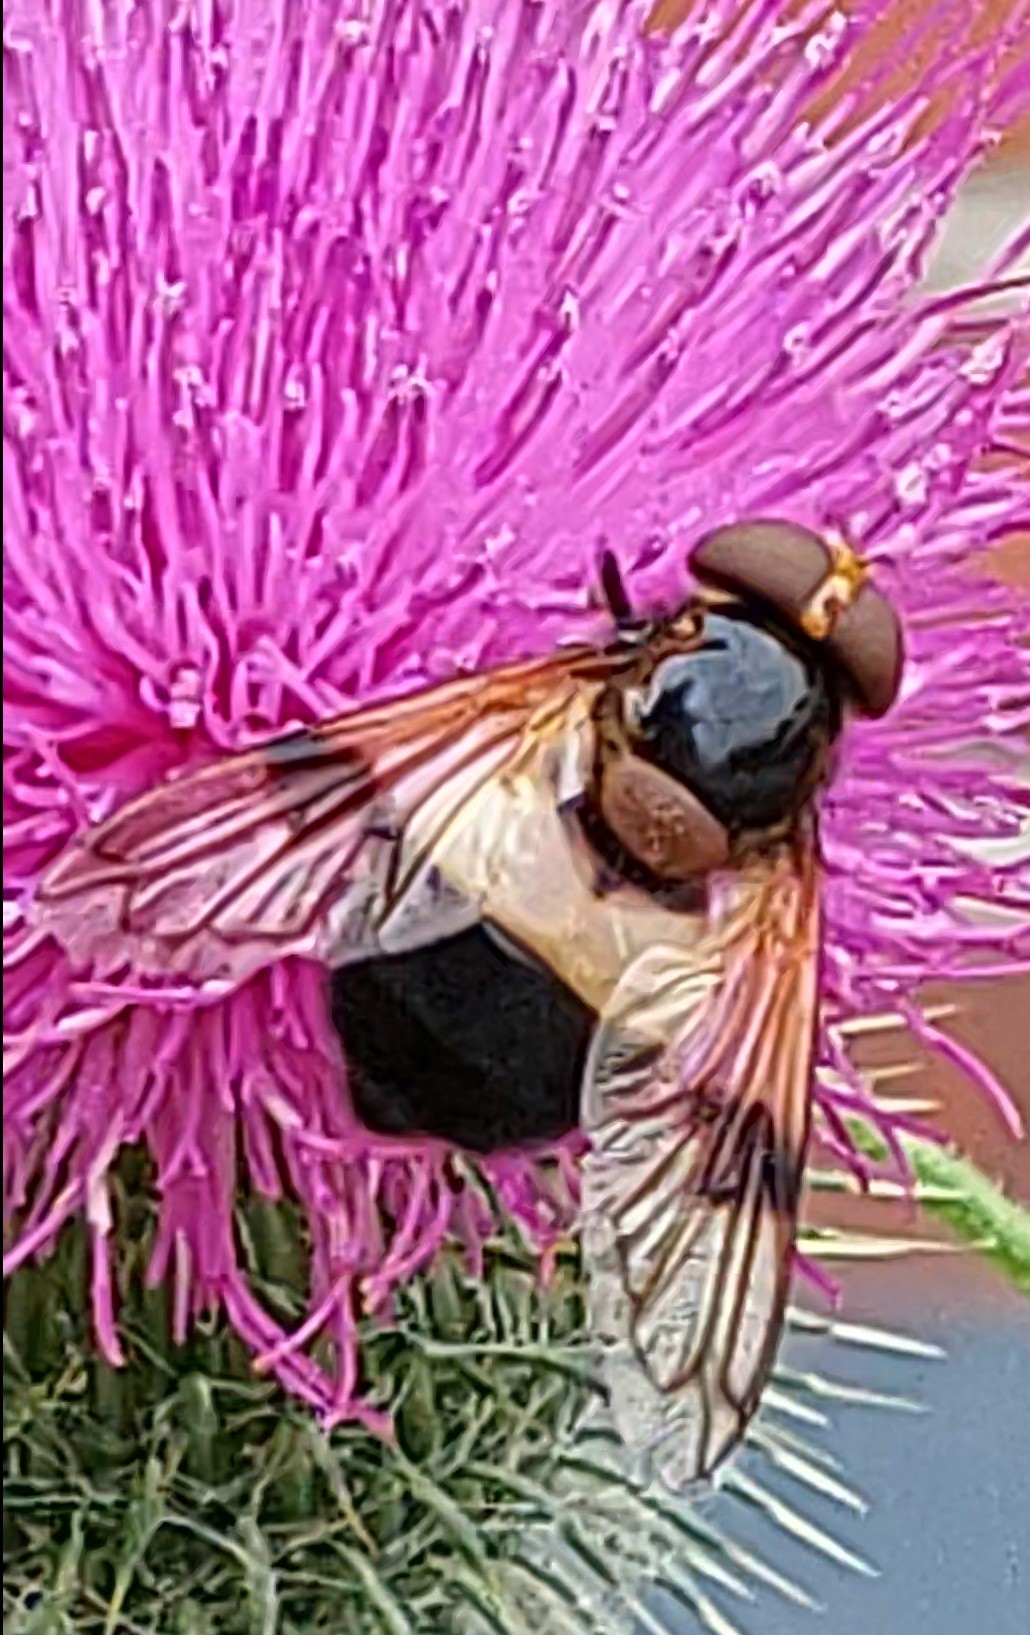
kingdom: Animalia
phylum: Arthropoda
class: Insecta
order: Diptera
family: Syrphidae
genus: Volucella
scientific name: Volucella pellucens
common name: Hvidbåndet humlesvirreflue
